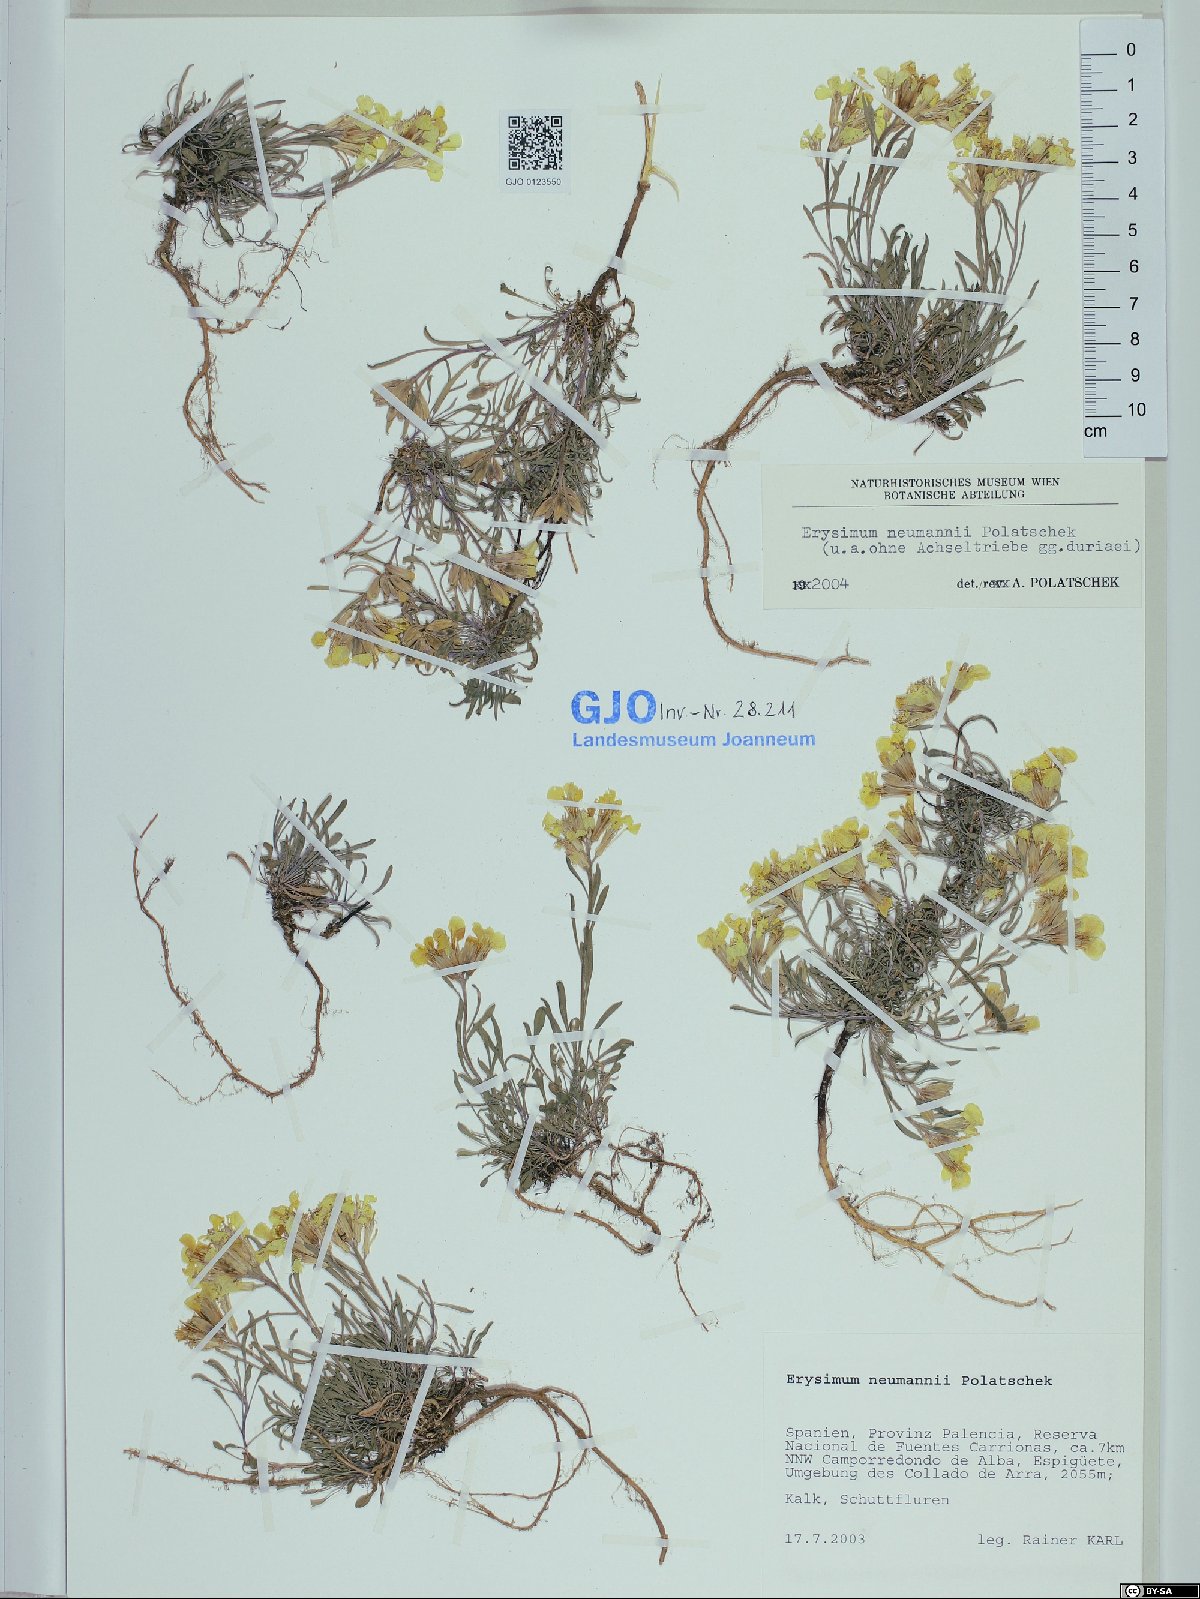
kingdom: Plantae
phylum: Tracheophyta
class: Magnoliopsida
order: Brassicales
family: Brassicaceae
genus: Erysimum
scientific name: Erysimum duriaei
